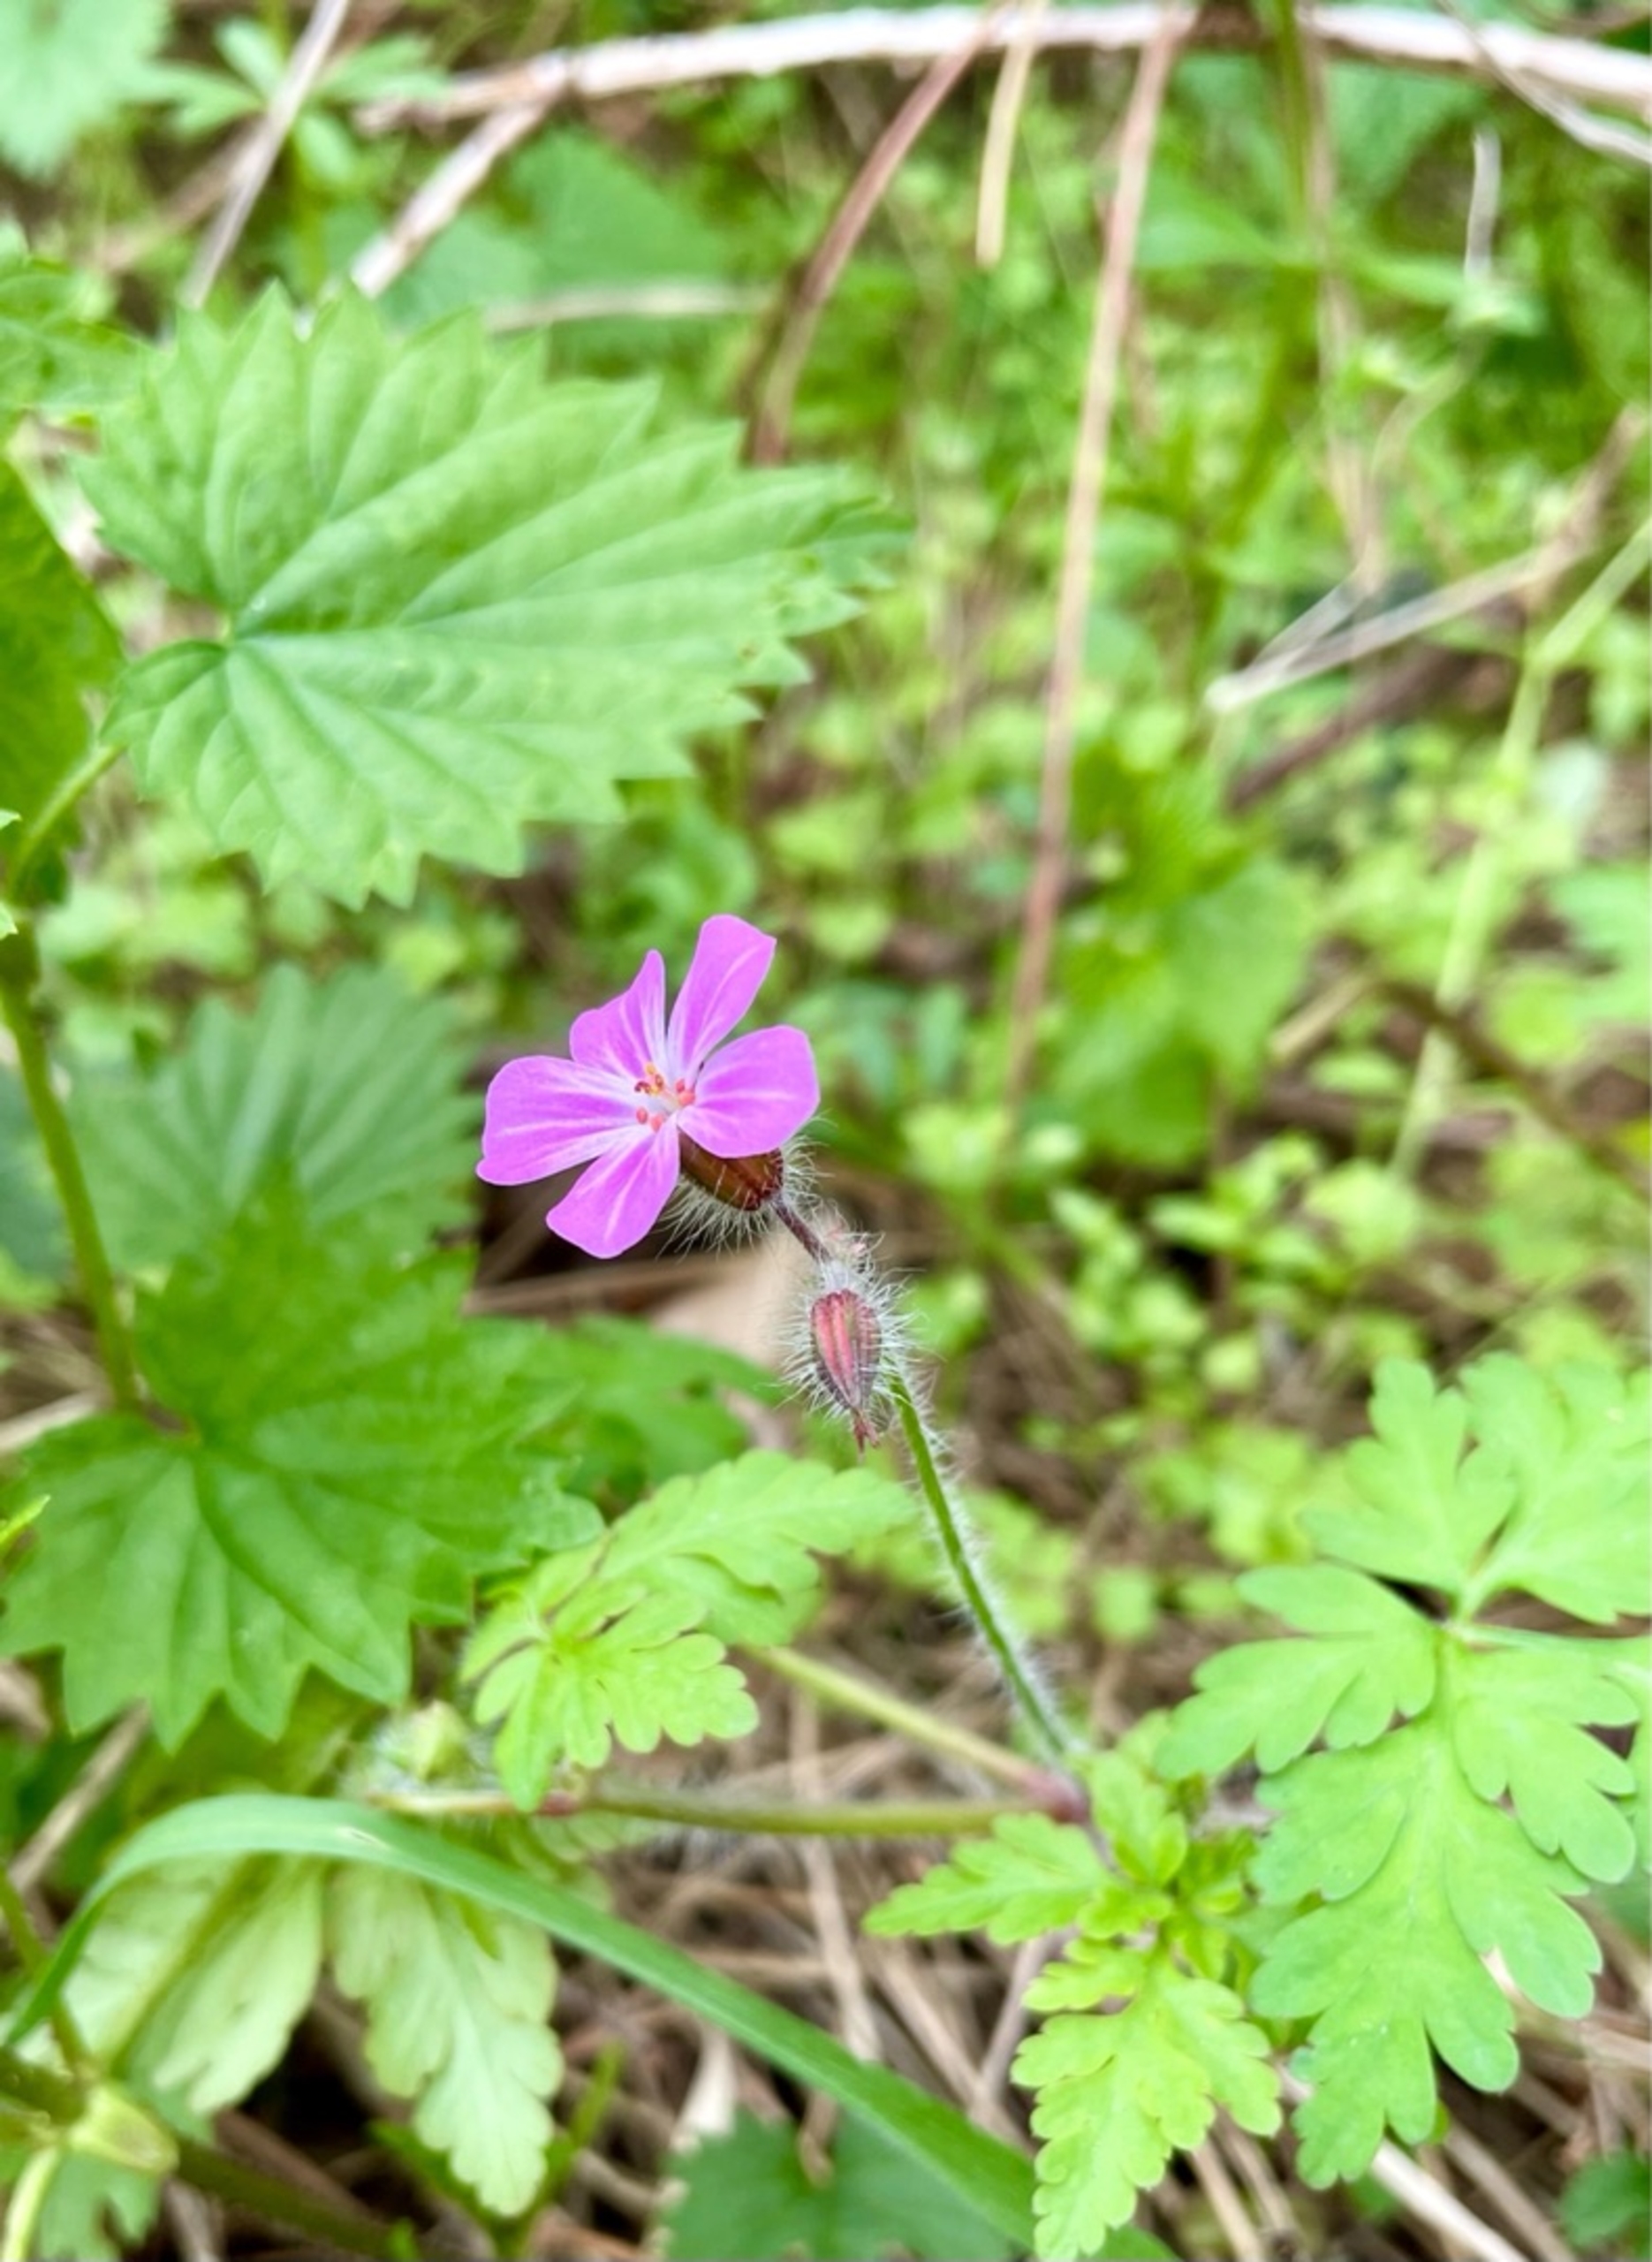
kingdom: Plantae
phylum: Tracheophyta
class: Magnoliopsida
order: Geraniales
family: Geraniaceae
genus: Geranium
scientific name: Geranium robertianum
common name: Stinkende storkenæb
